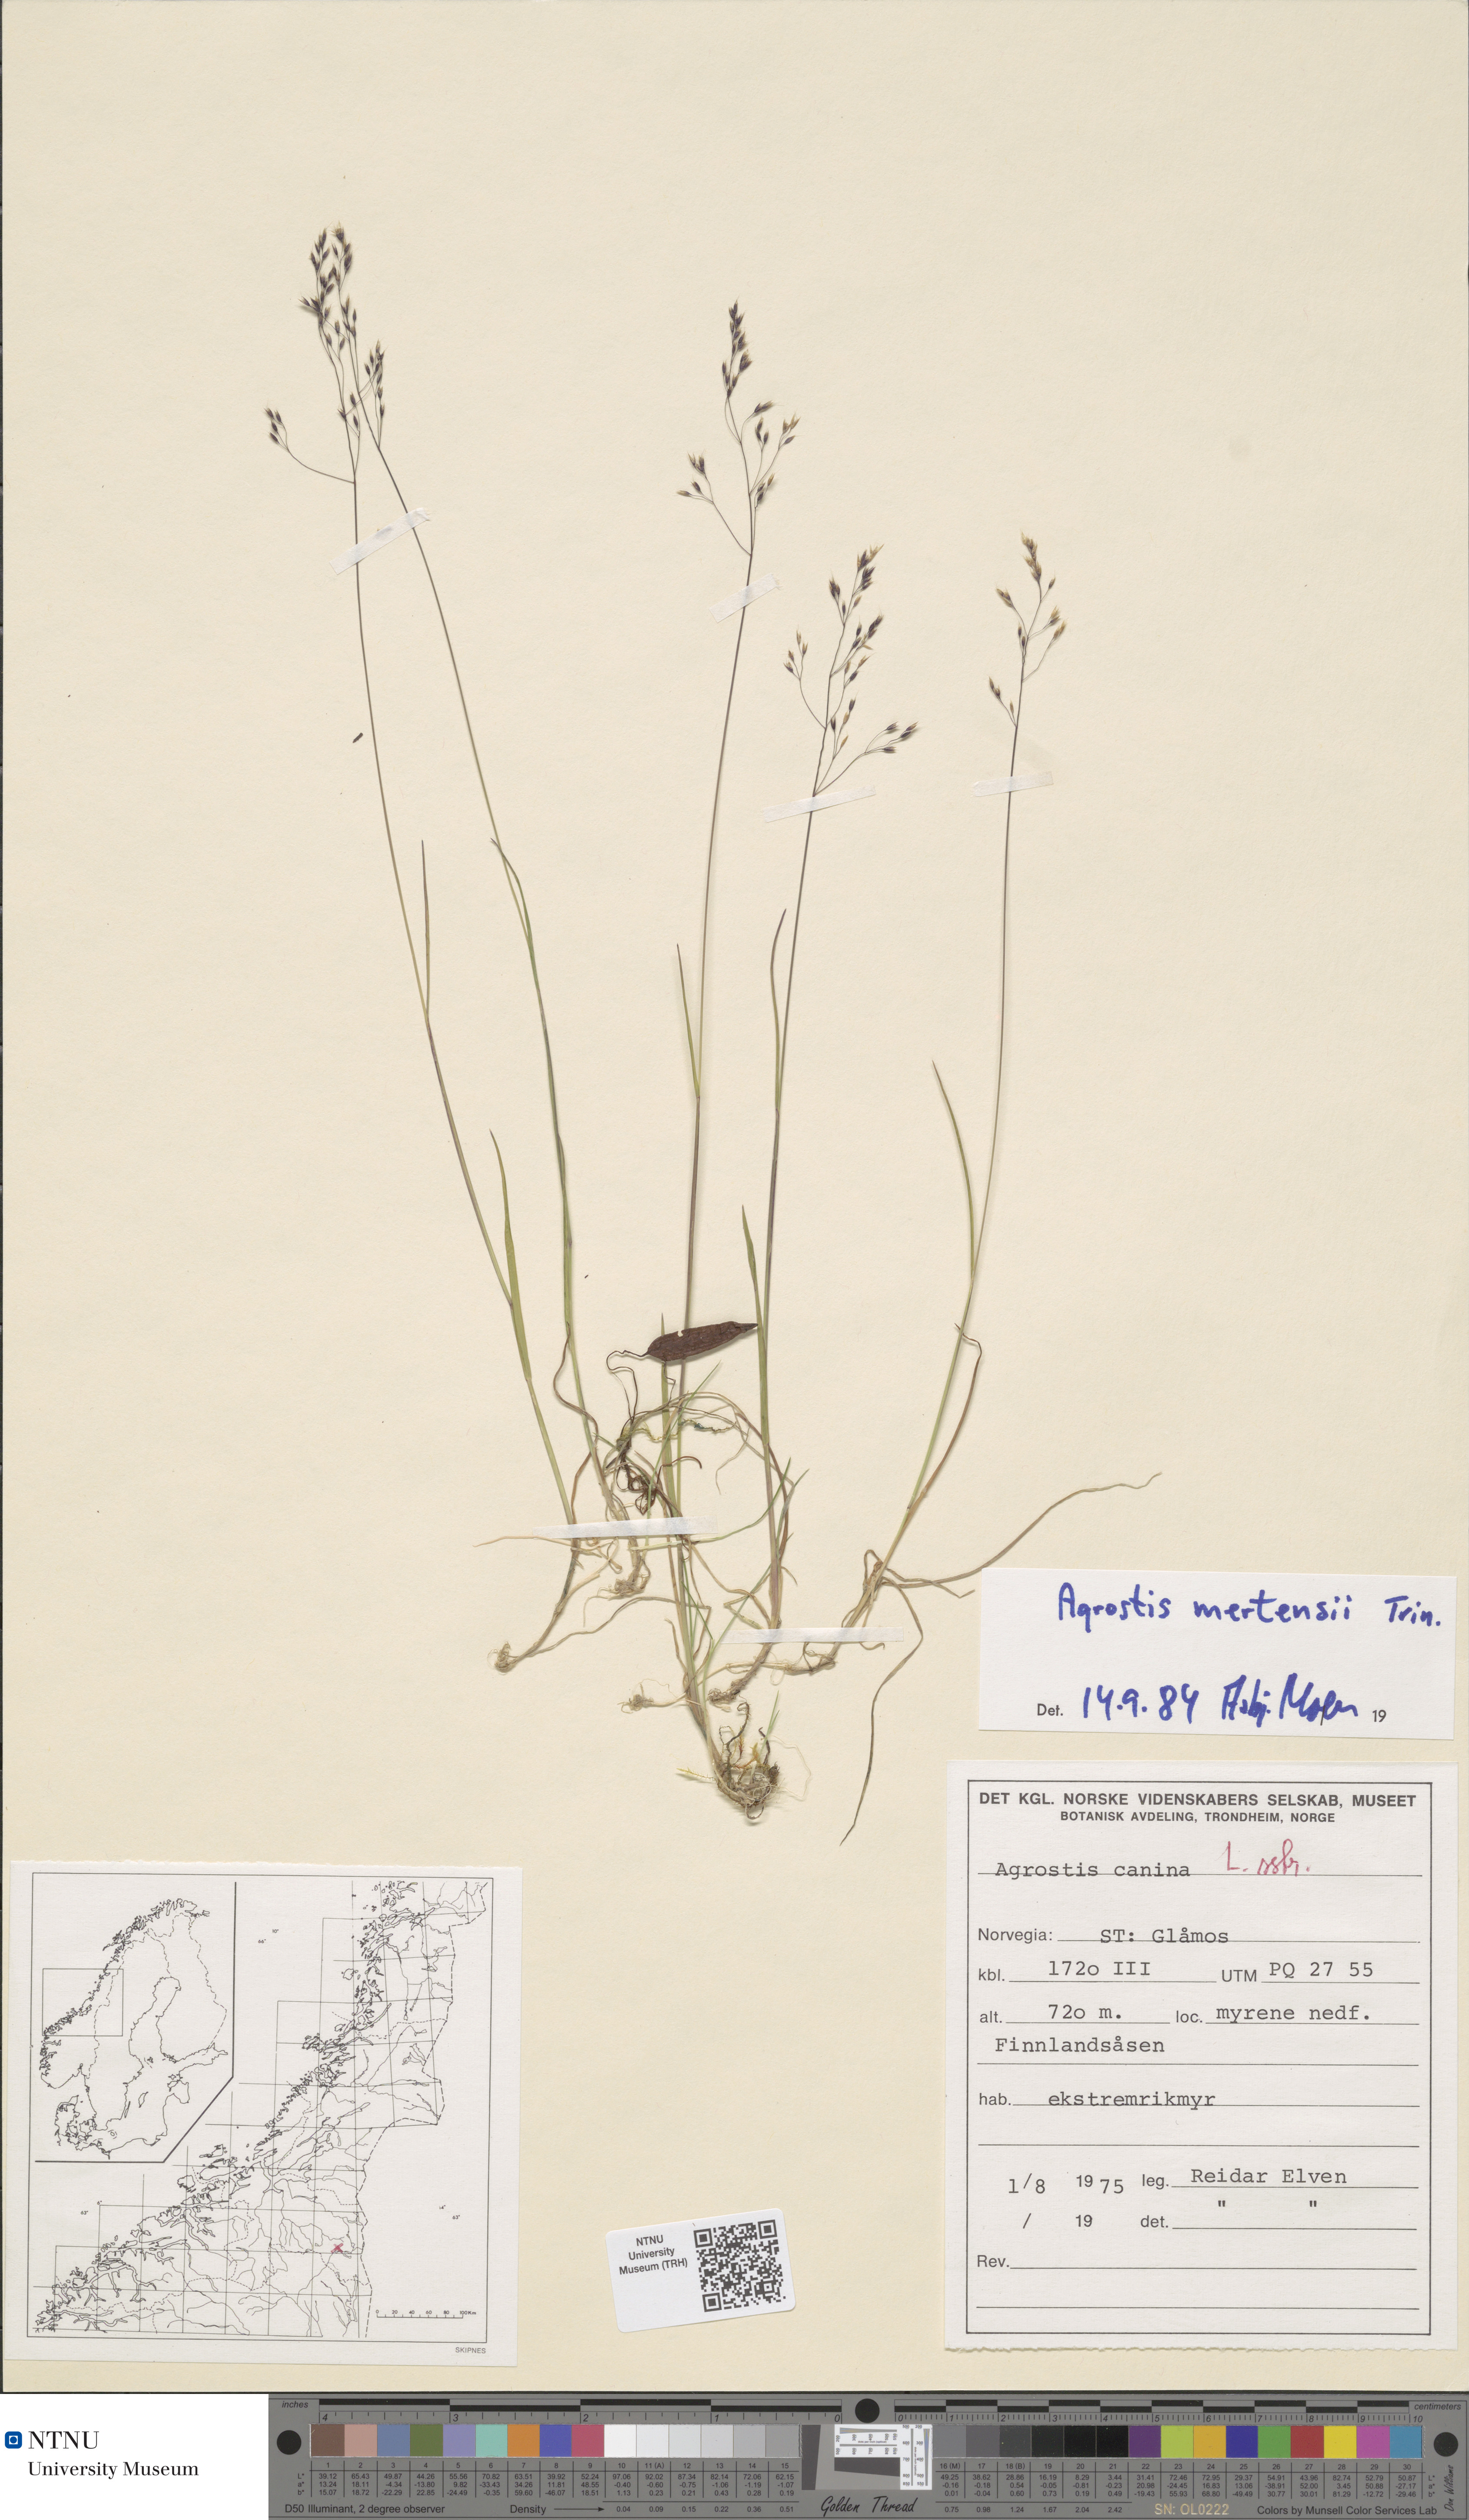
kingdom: Plantae
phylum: Tracheophyta
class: Liliopsida
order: Poales
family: Poaceae
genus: Agrostis
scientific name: Agrostis mertensii
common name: Northern bent
